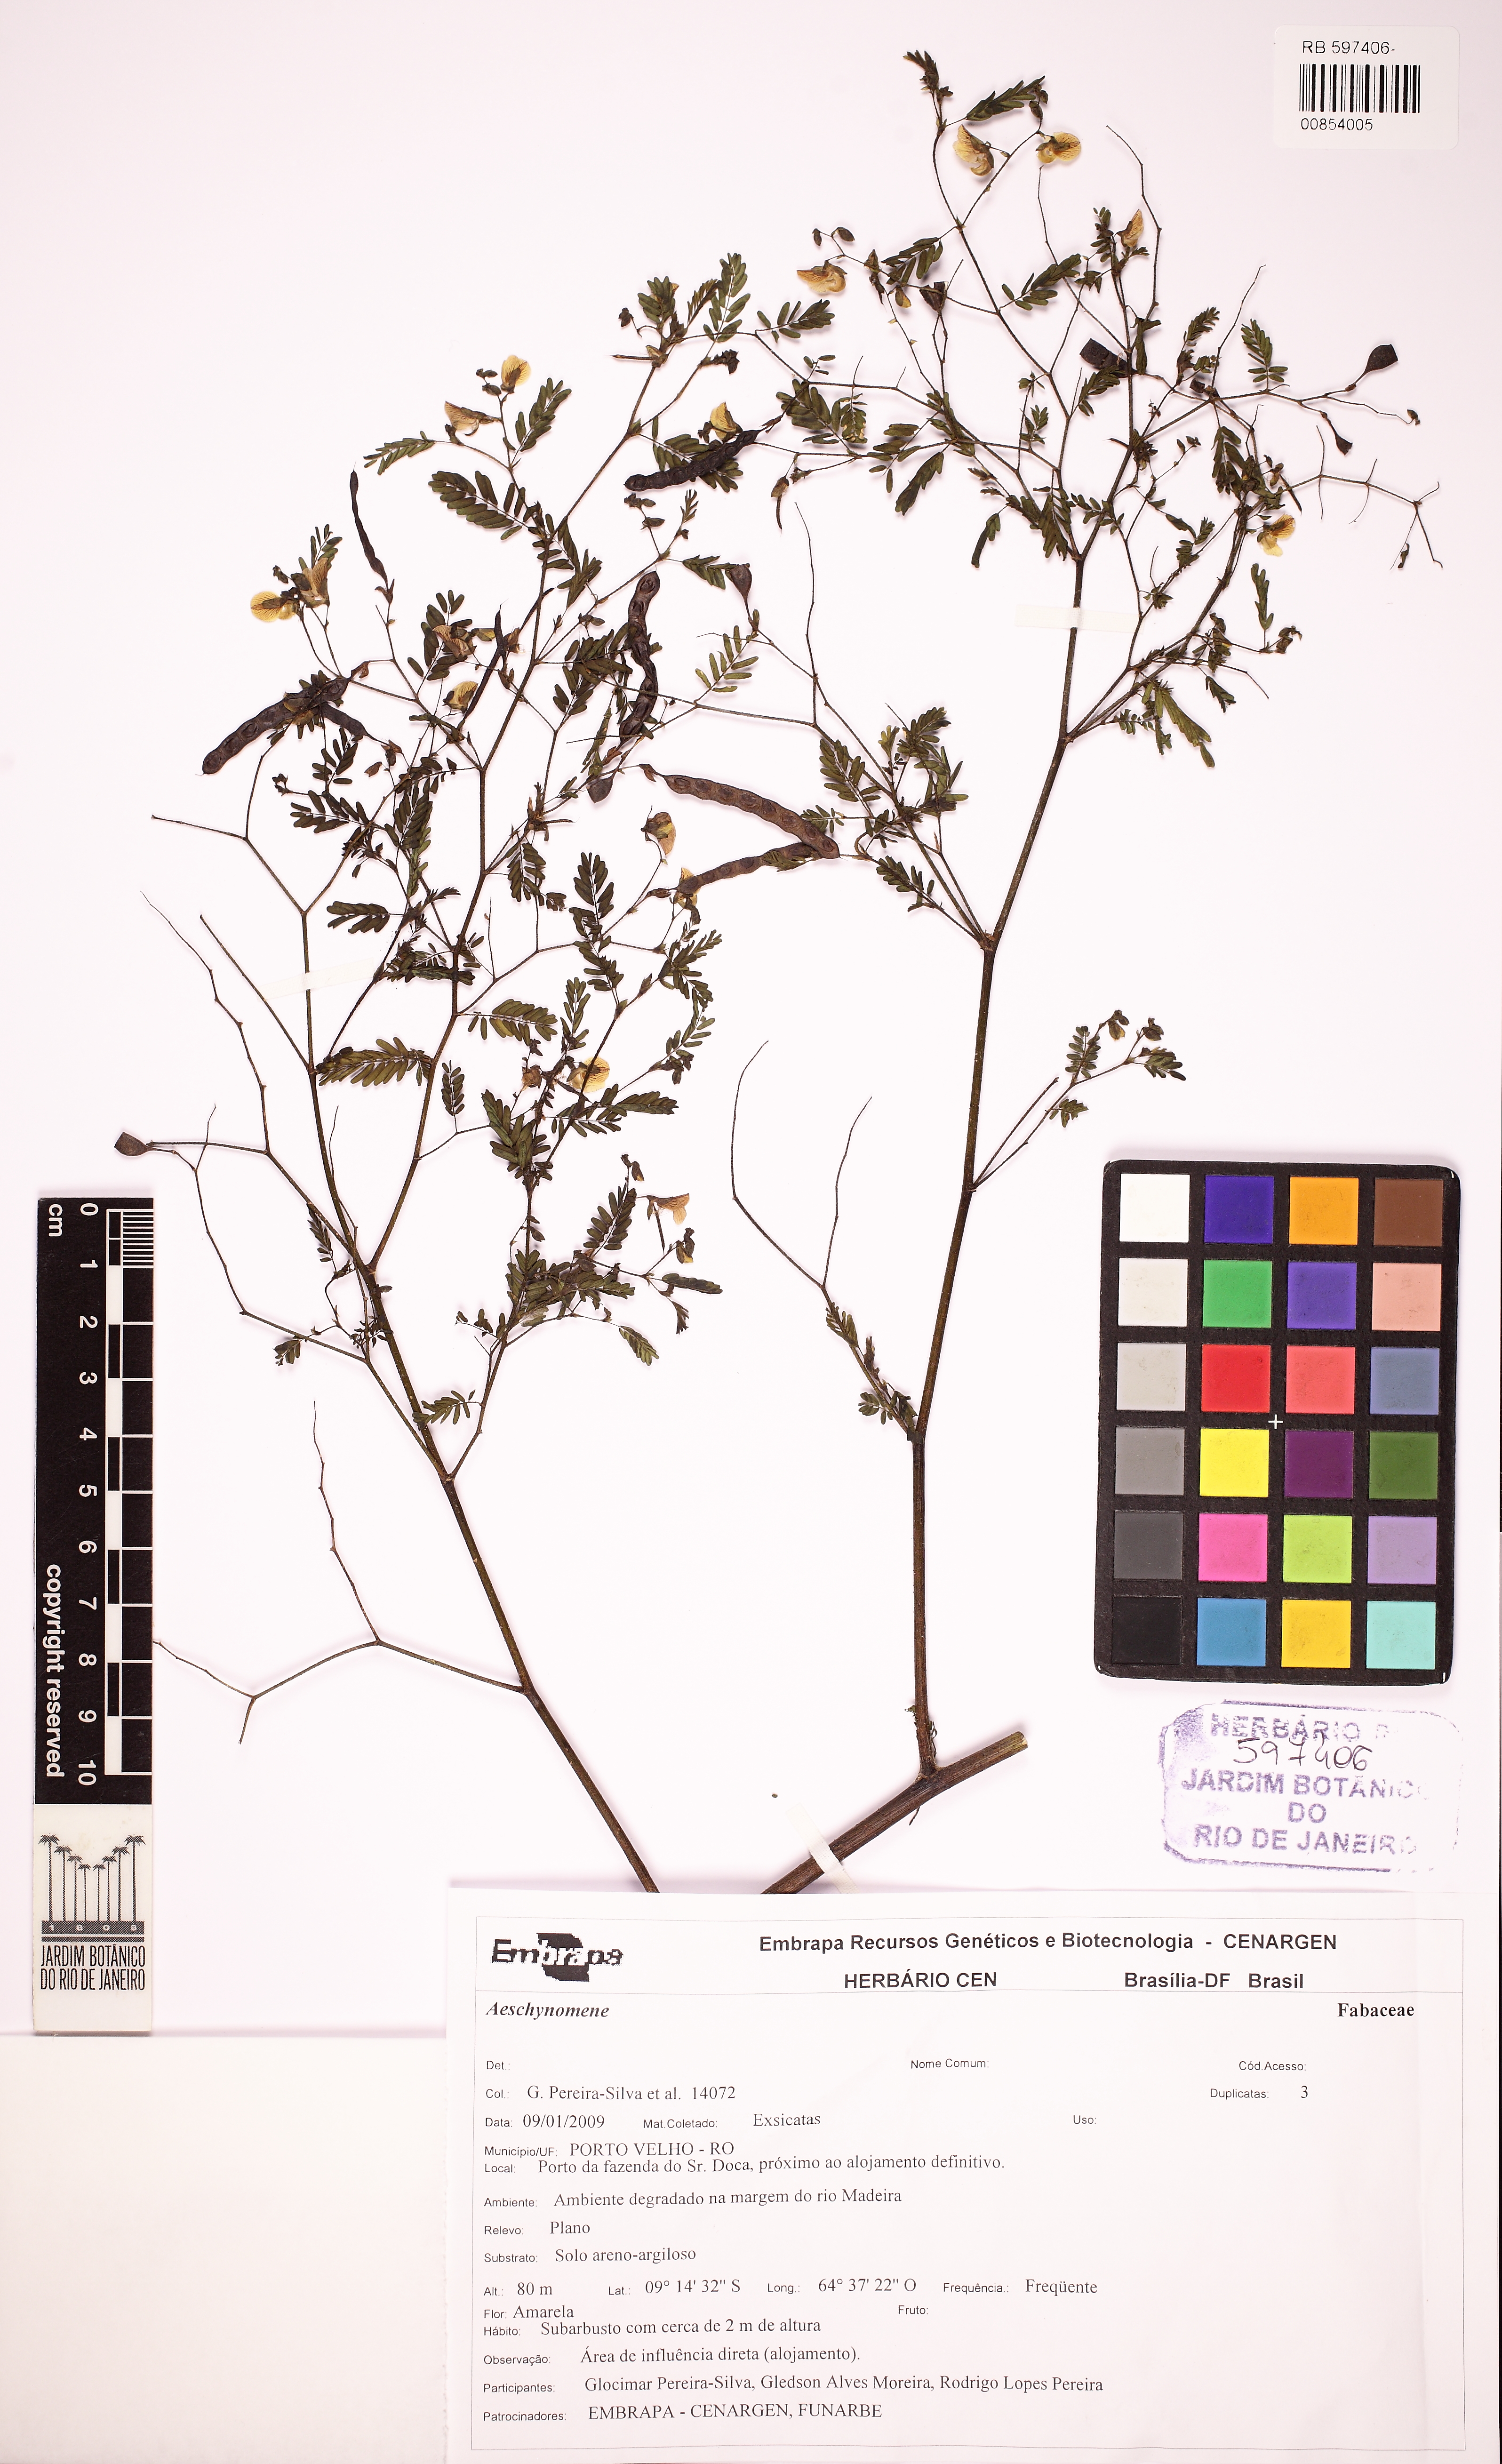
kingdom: Plantae
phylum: Tracheophyta
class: Magnoliopsida
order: Fabales
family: Fabaceae
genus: Aeschynomene
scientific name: Aeschynomene
